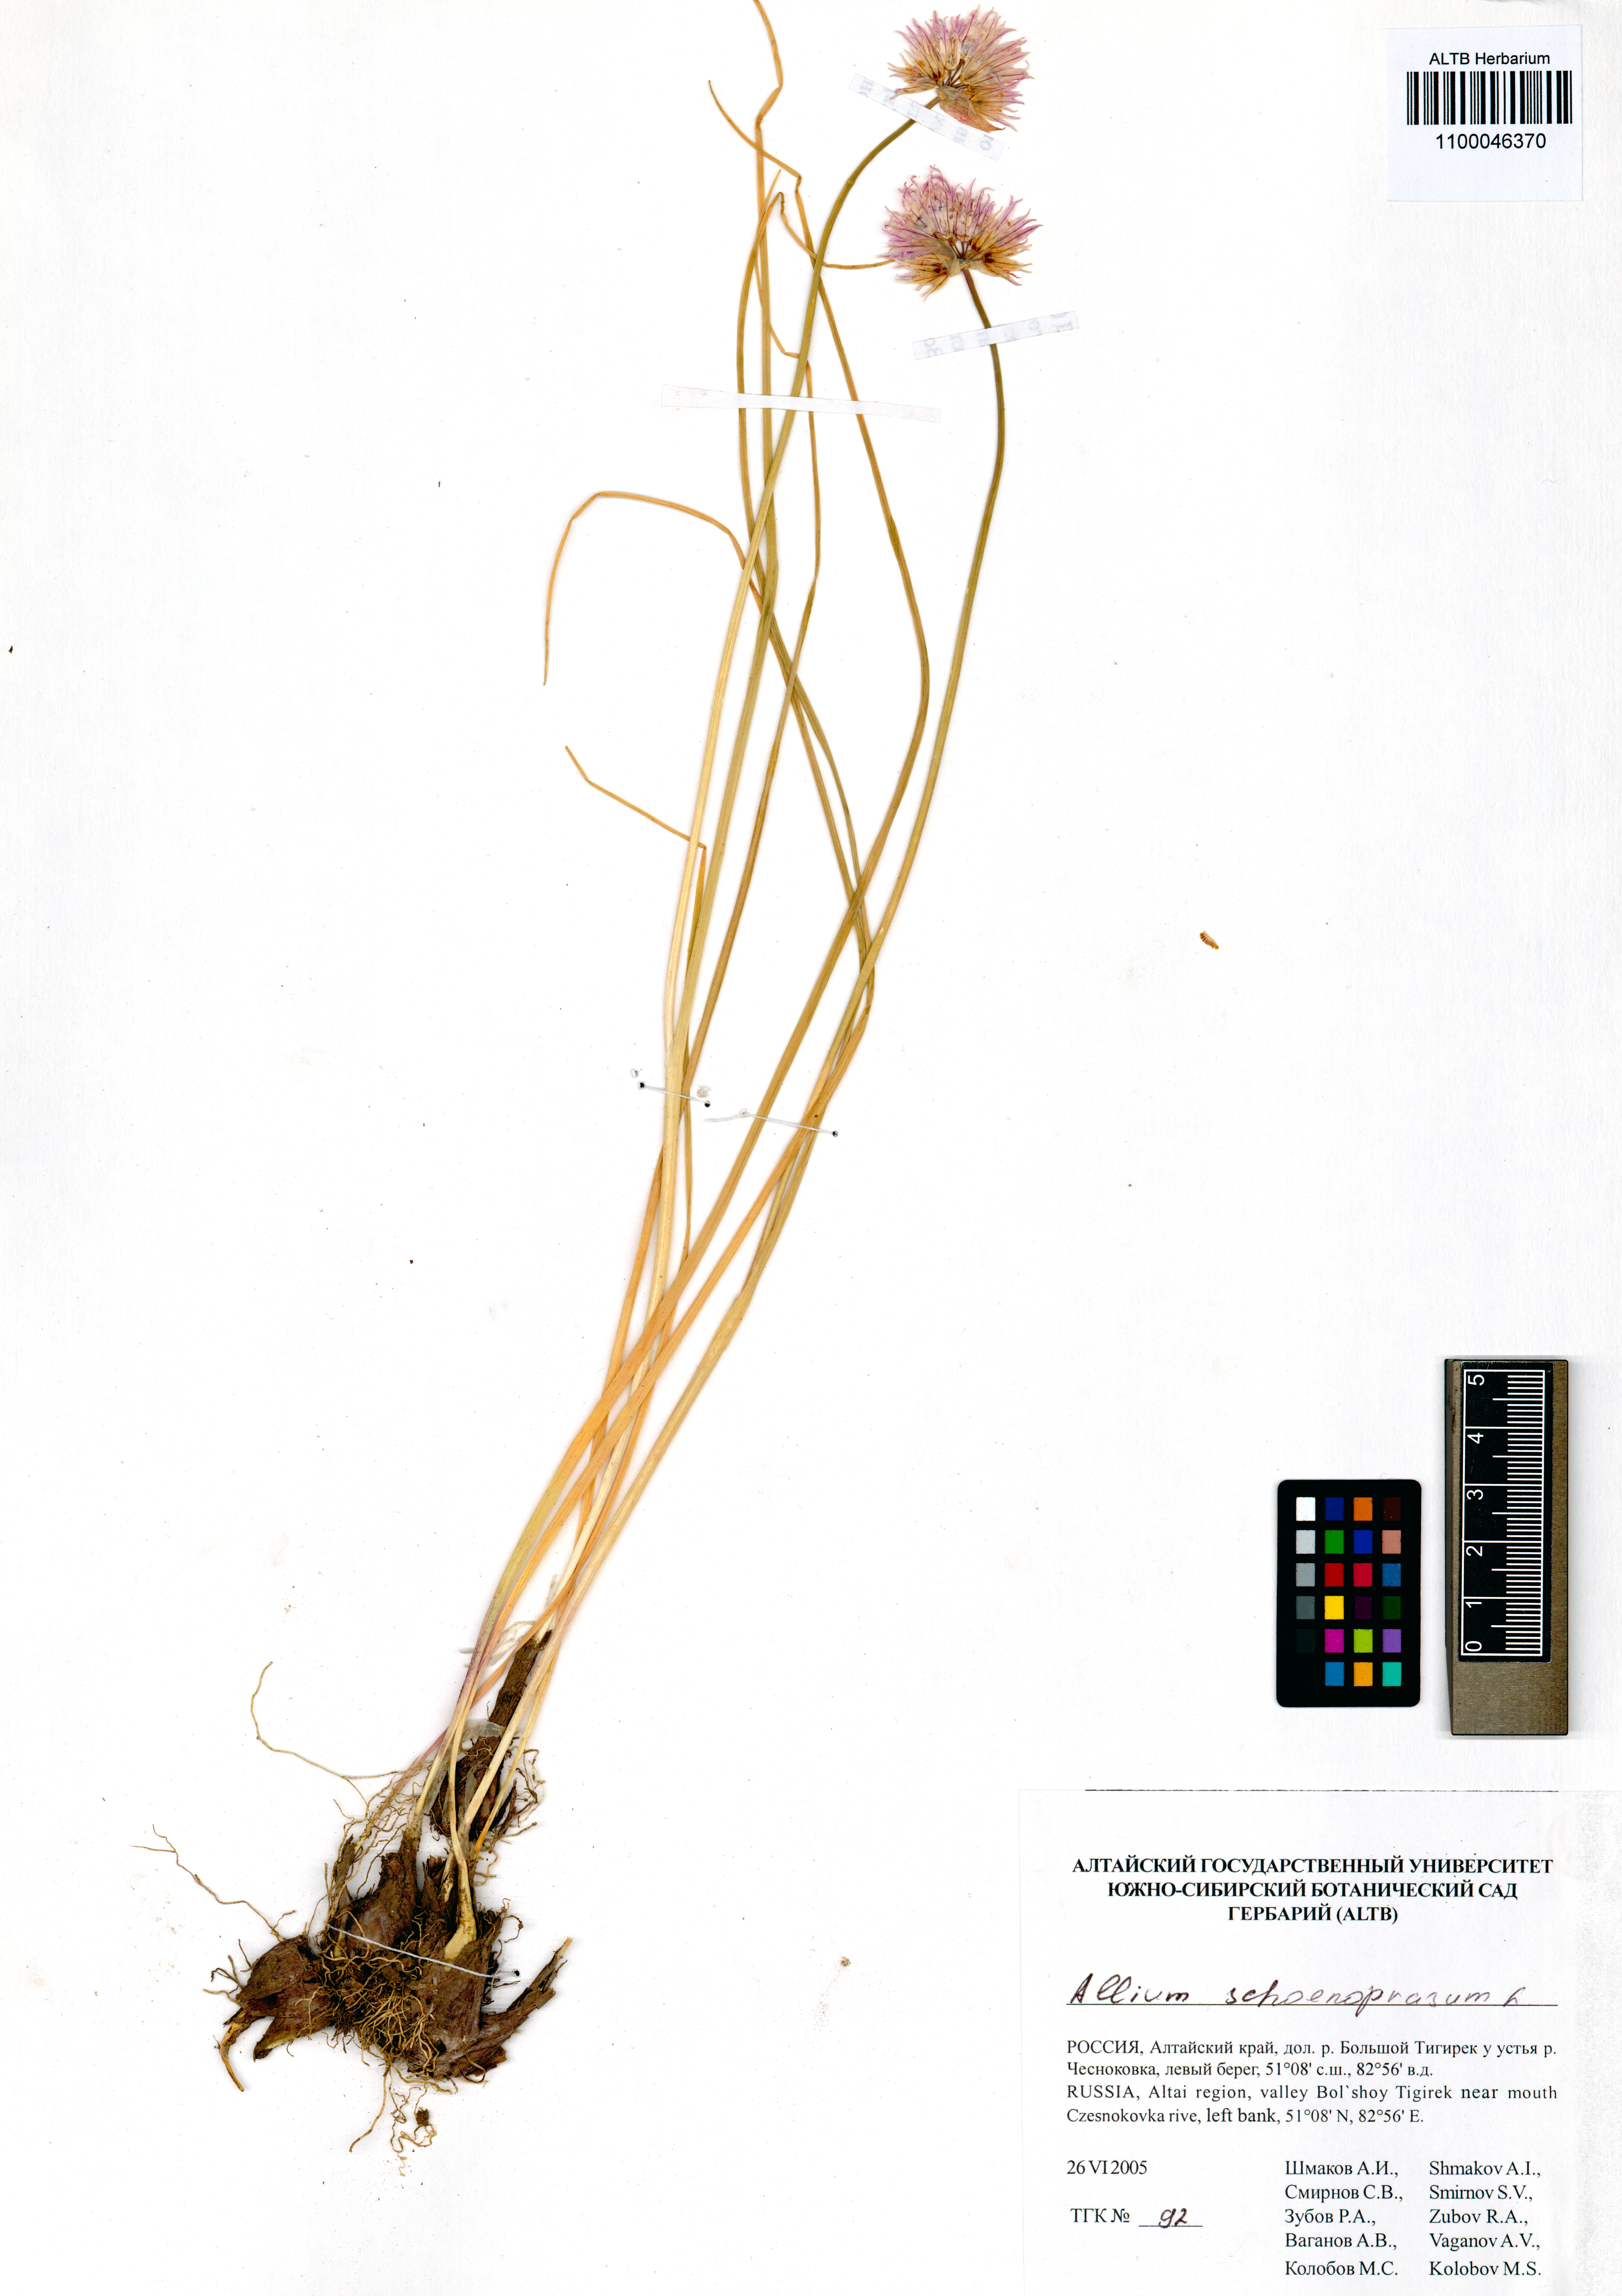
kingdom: Plantae
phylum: Tracheophyta
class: Liliopsida
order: Asparagales
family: Amaryllidaceae
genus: Allium
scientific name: Allium schoenoprasum
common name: Chives
